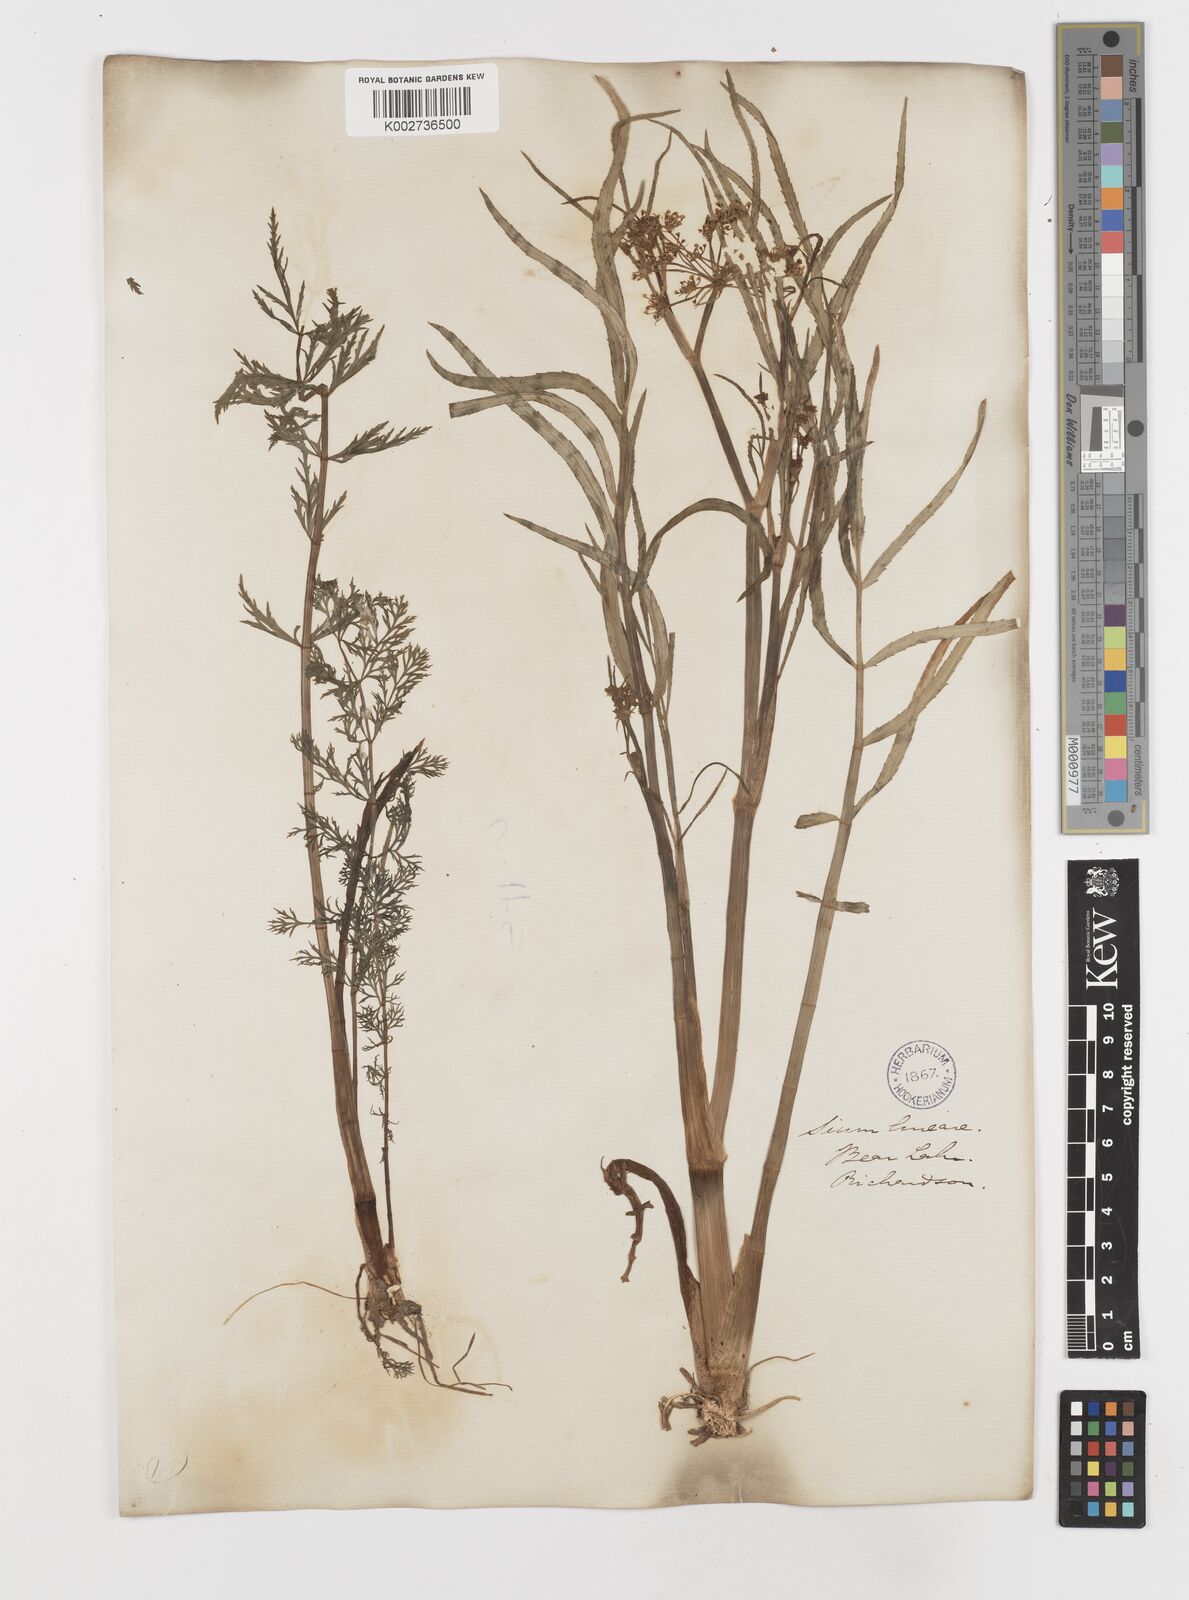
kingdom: Plantae
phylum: Tracheophyta
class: Magnoliopsida
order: Apiales
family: Apiaceae
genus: Sium
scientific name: Sium suave
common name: Hemlock water-parsnip
